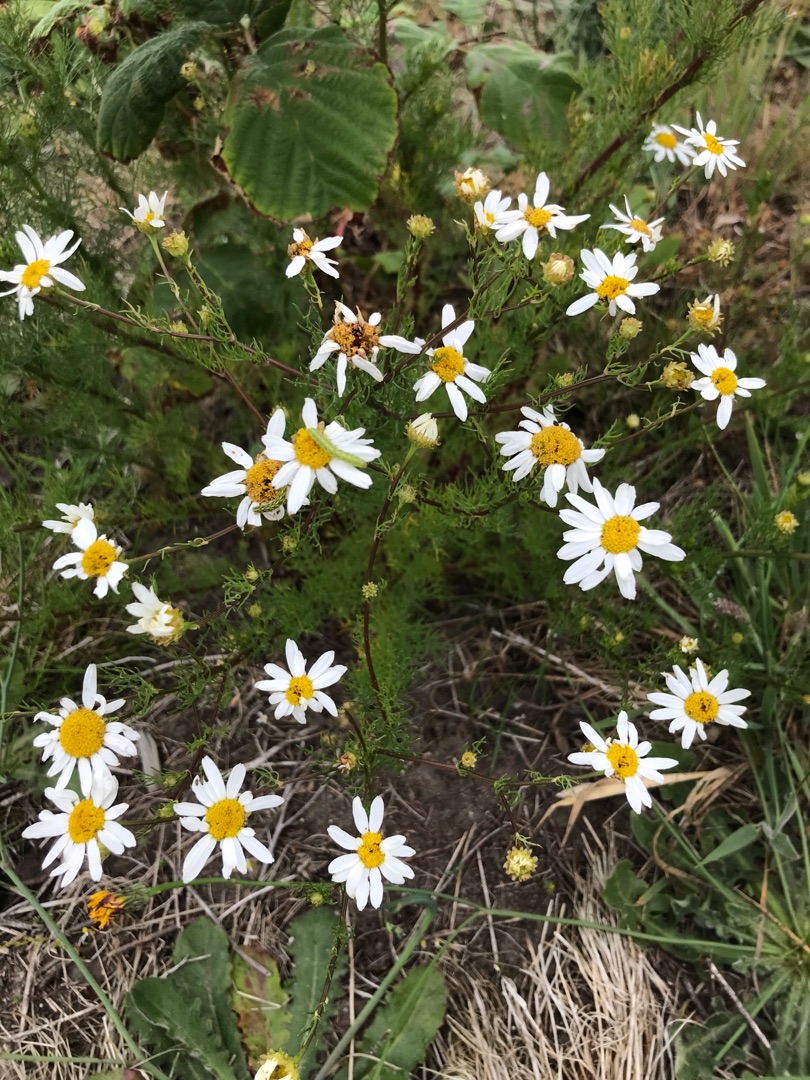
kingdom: Plantae
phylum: Tracheophyta
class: Magnoliopsida
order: Asterales
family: Asteraceae
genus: Tripleurospermum
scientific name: Tripleurospermum inodorum
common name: Lugtløs kamille
